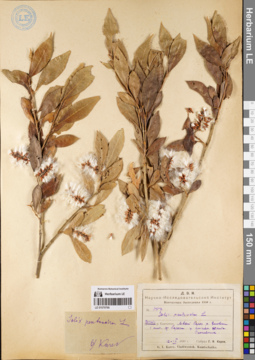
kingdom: Plantae
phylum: Tracheophyta
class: Magnoliopsida
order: Malpighiales
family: Salicaceae
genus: Salix
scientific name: Salix pseudopentandra
